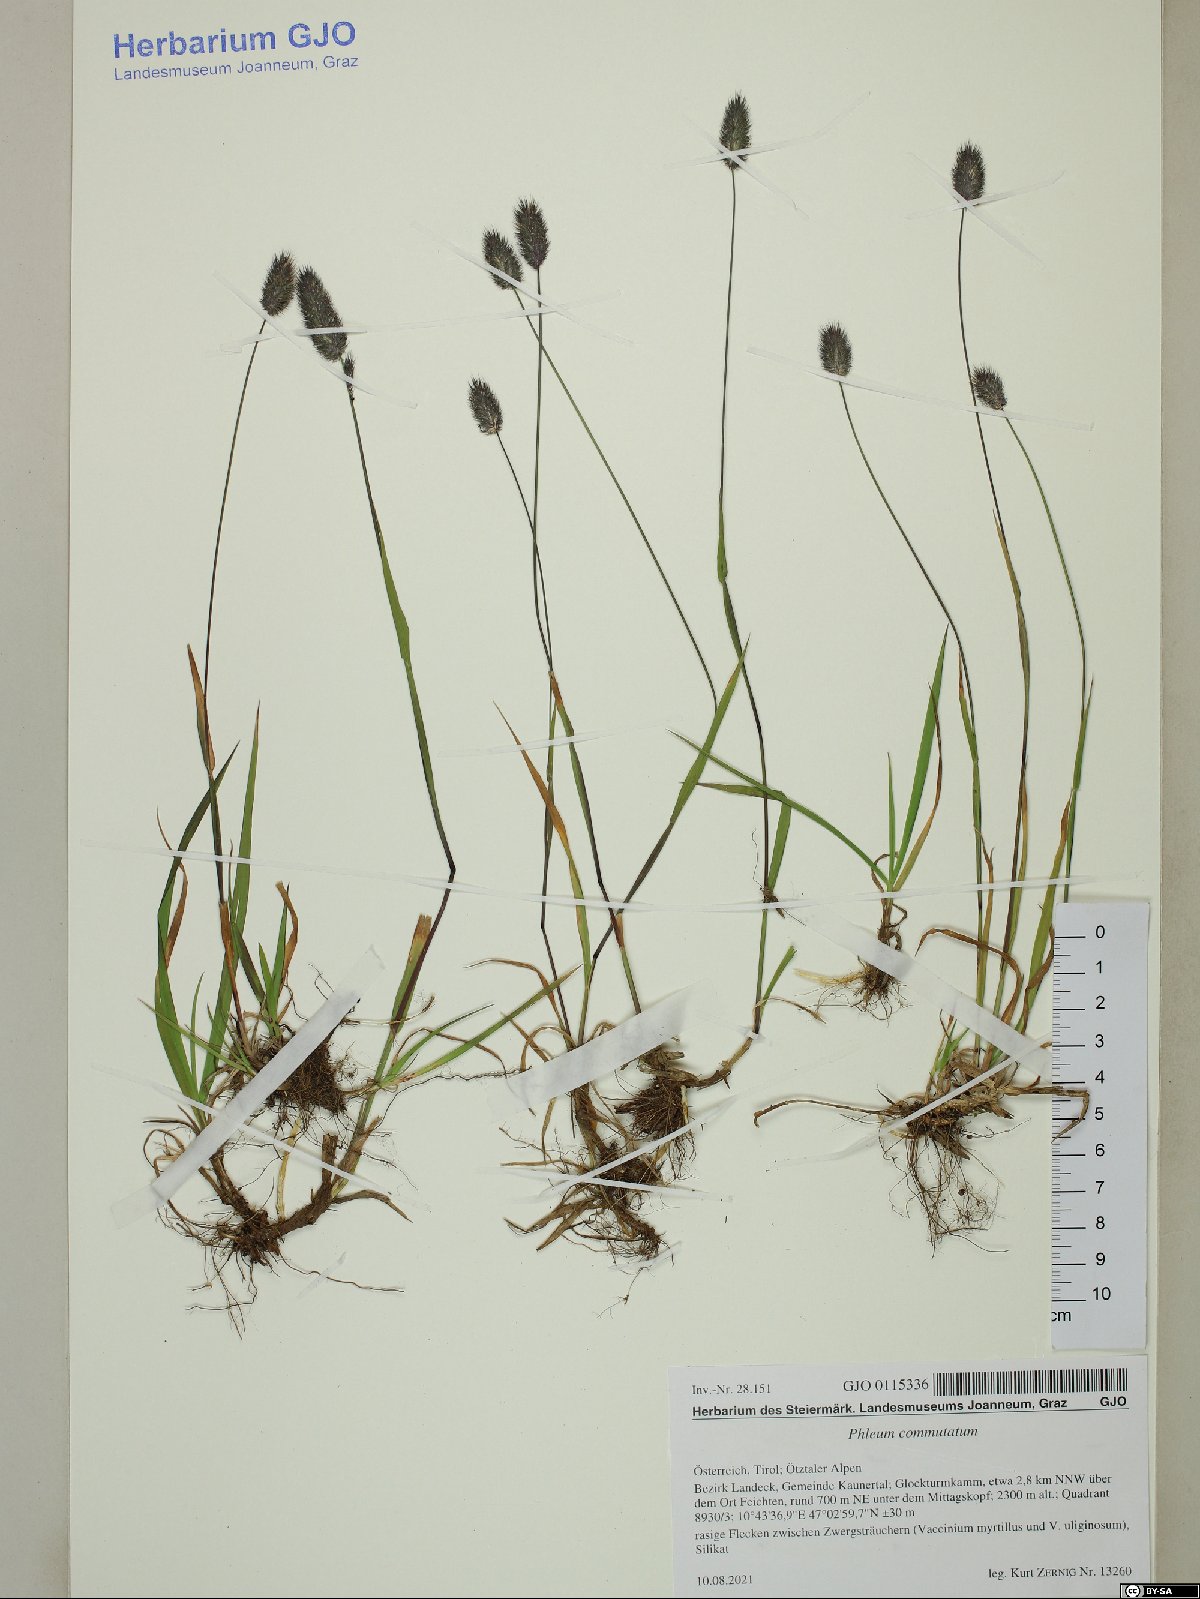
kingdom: Plantae
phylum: Tracheophyta
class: Liliopsida
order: Poales
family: Poaceae
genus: Phleum
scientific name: Phleum alpinum
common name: Alpine cat's-tail
